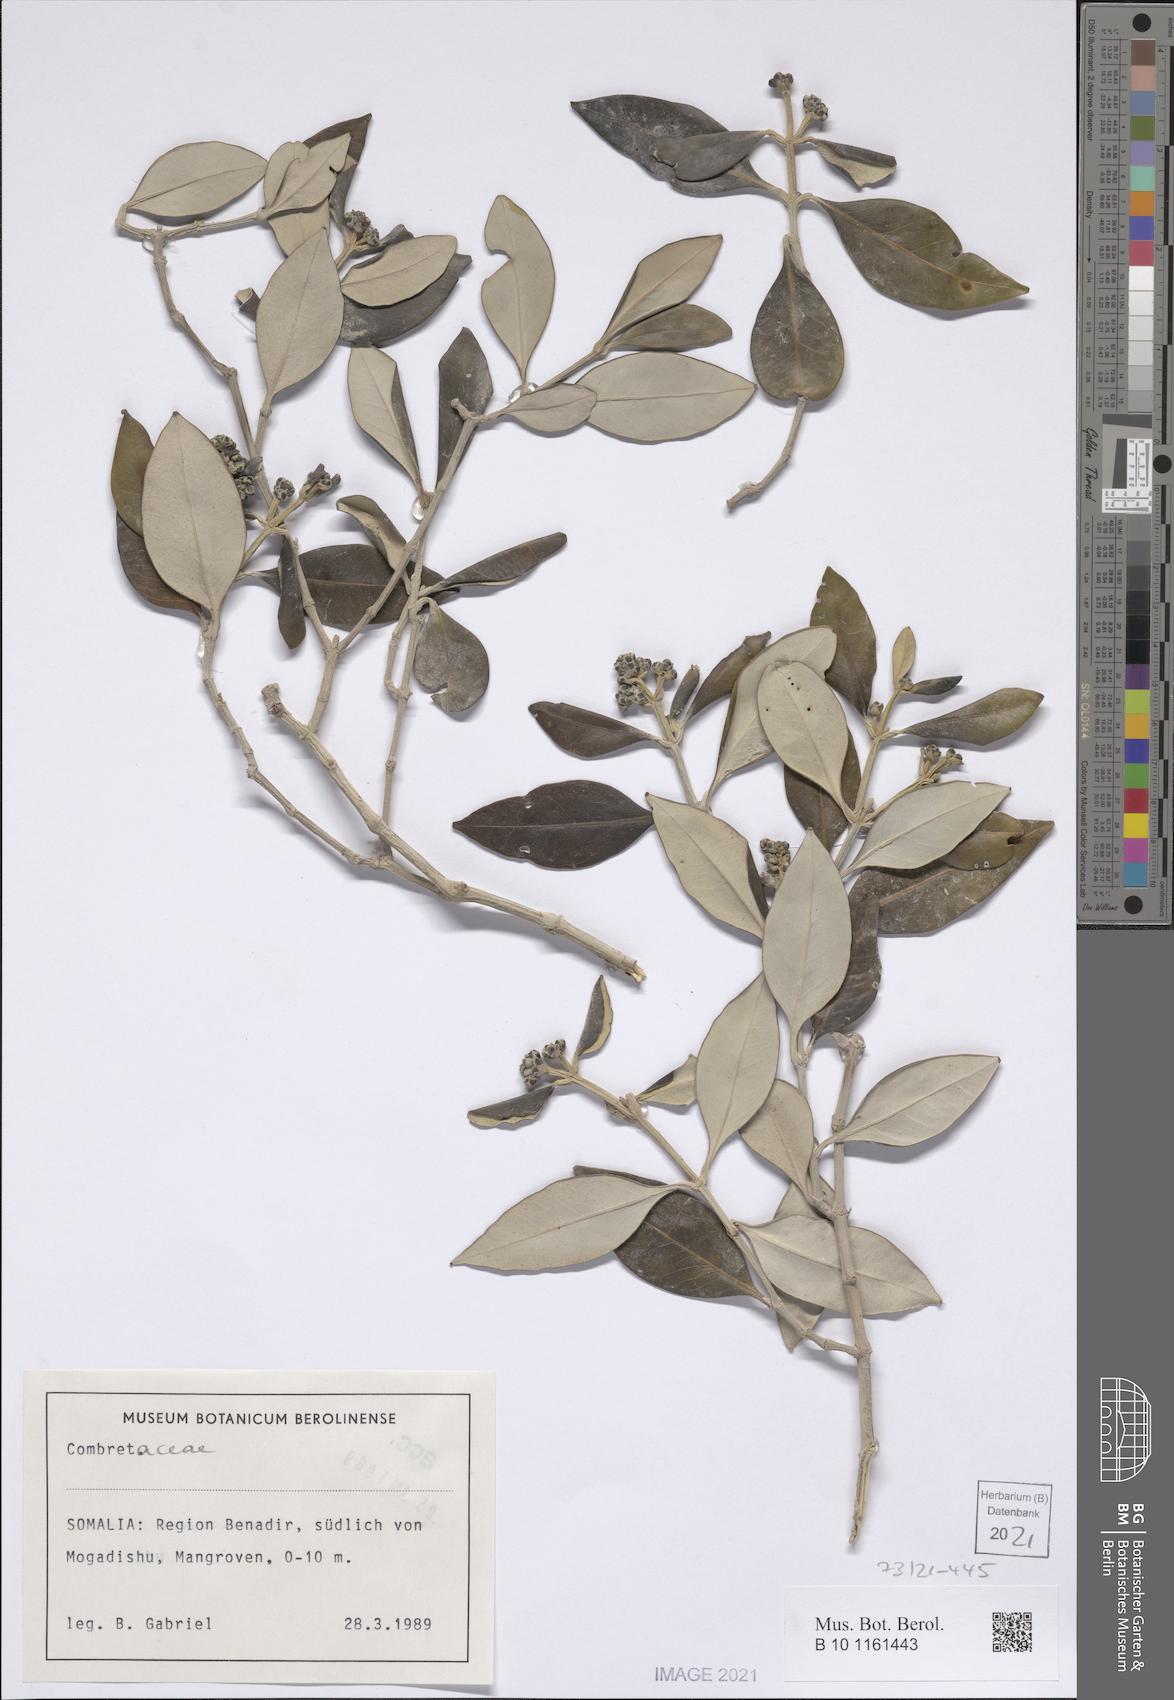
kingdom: Plantae
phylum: Tracheophyta
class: Magnoliopsida
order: Lamiales
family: Acanthaceae
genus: Avicennia
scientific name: Avicennia marina
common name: Gray mangrove
